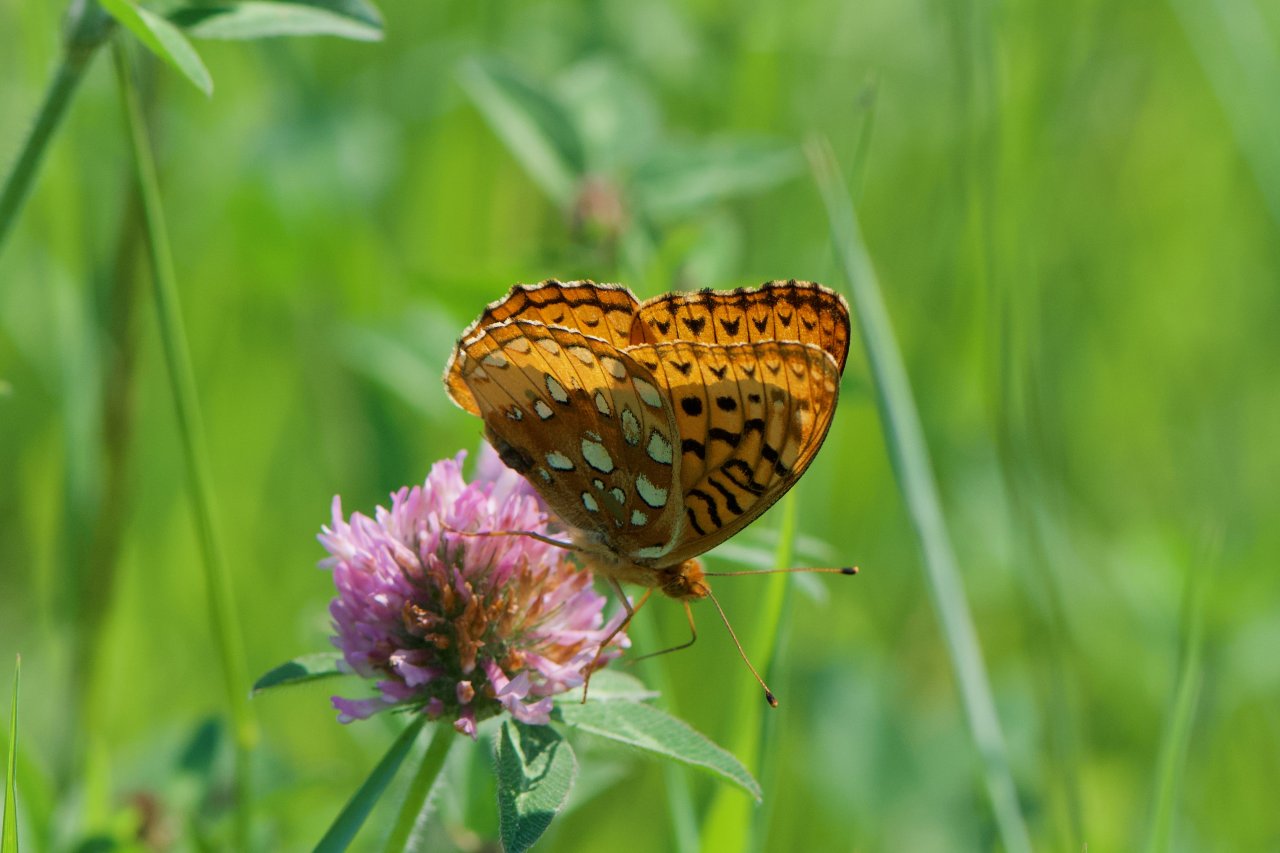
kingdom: Animalia
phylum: Arthropoda
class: Insecta
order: Lepidoptera
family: Nymphalidae
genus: Speyeria
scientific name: Speyeria cybele
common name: Great Spangled Fritillary
